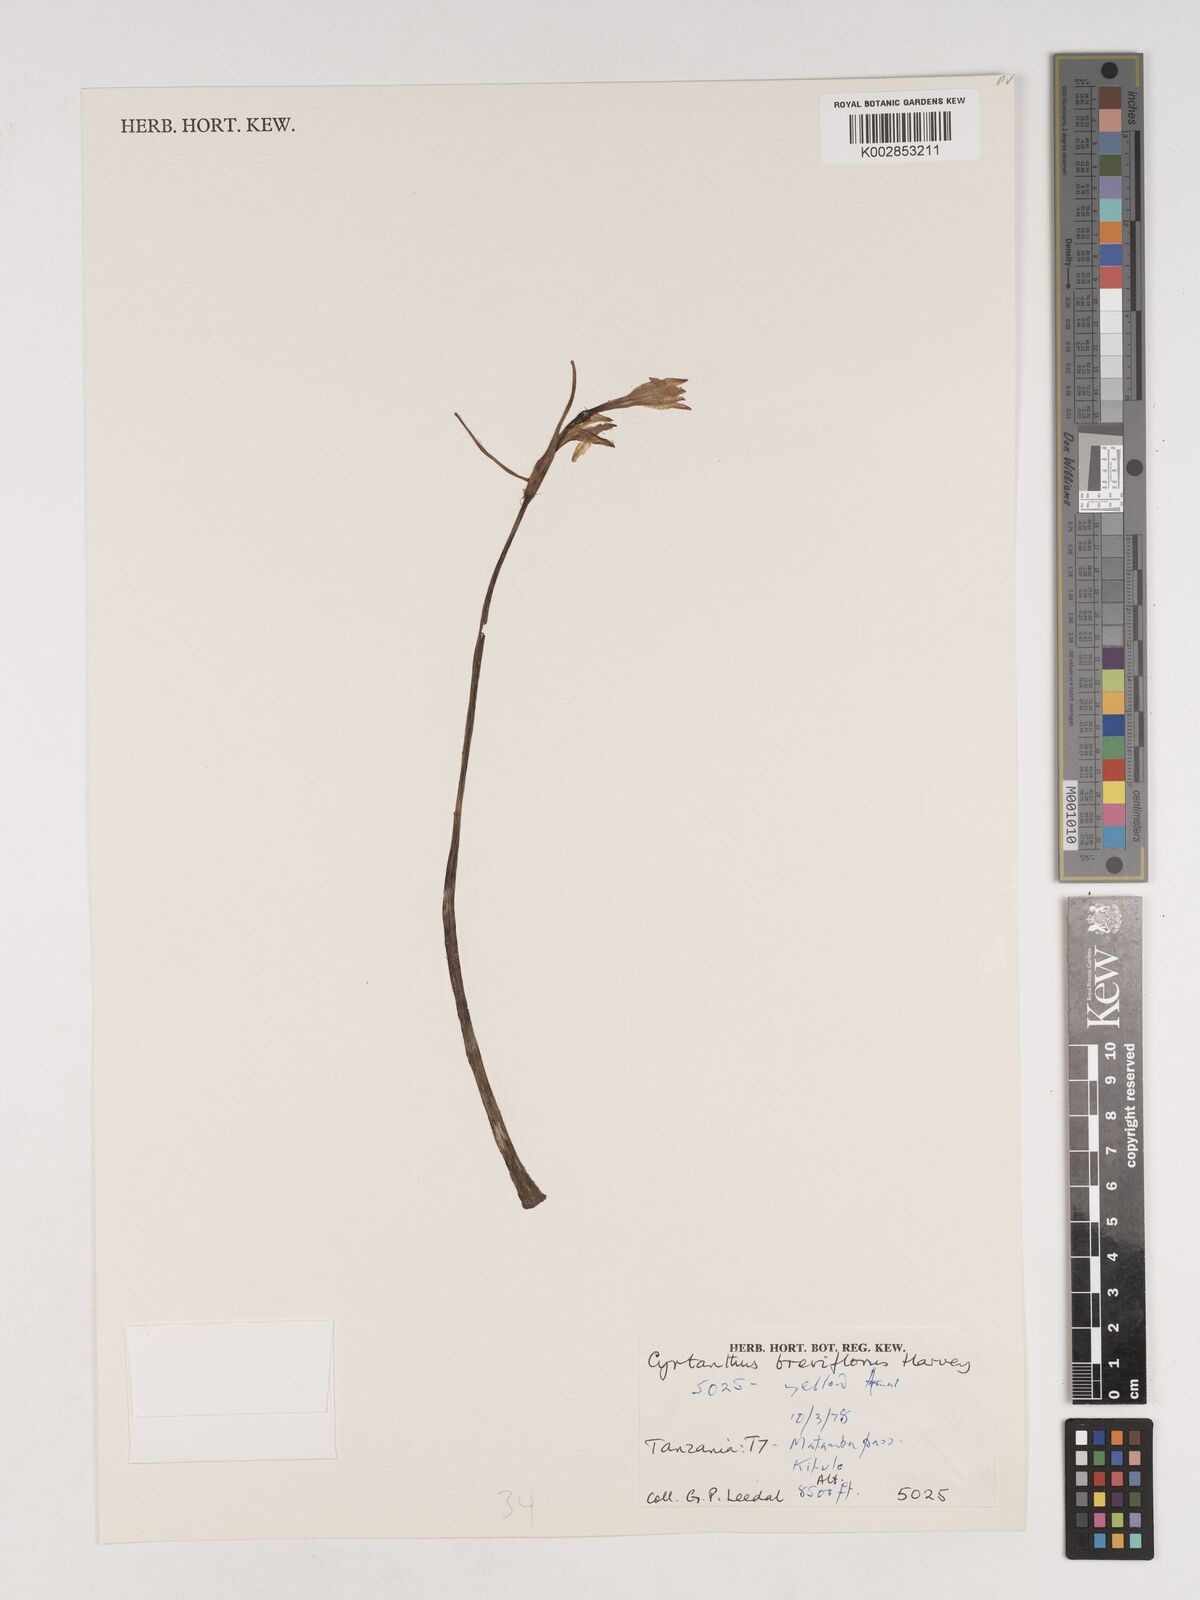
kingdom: Plantae
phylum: Tracheophyta
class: Liliopsida
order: Asparagales
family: Amaryllidaceae
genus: Cyrtanthus
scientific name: Cyrtanthus breviflorus
